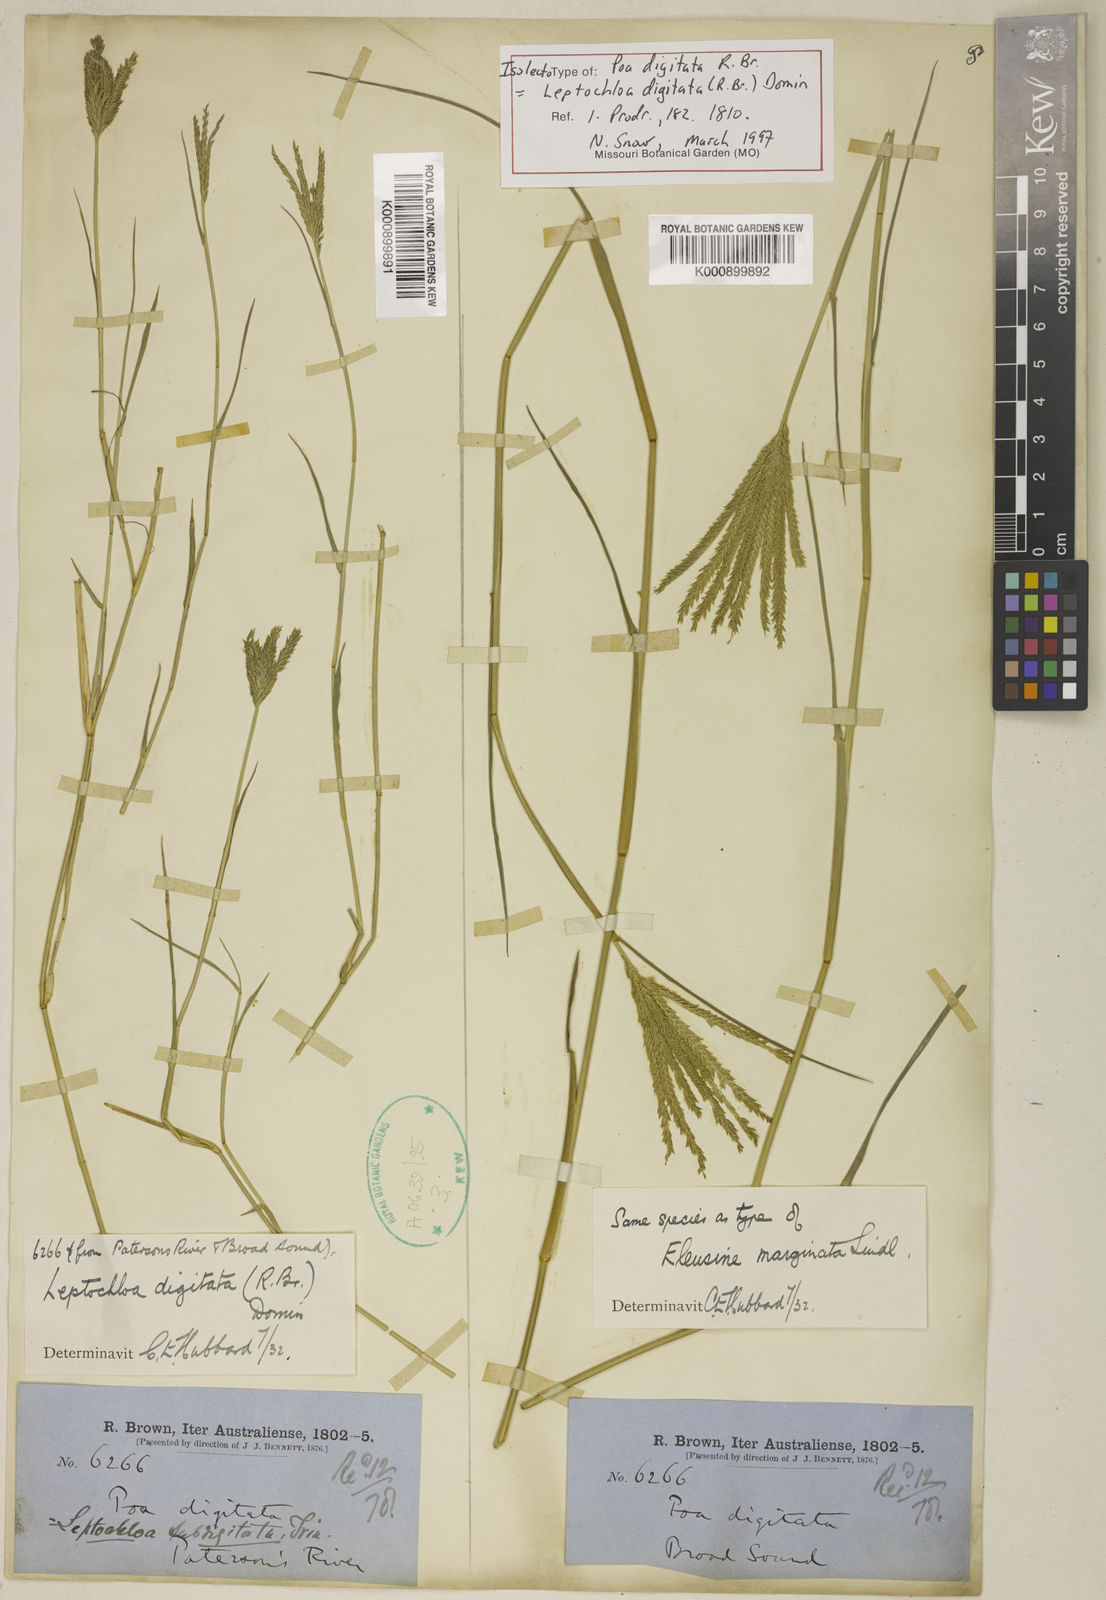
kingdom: Plantae
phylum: Tracheophyta
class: Liliopsida
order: Poales
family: Poaceae
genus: Leptochloa
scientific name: Leptochloa digitata
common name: Finger sprangletop
